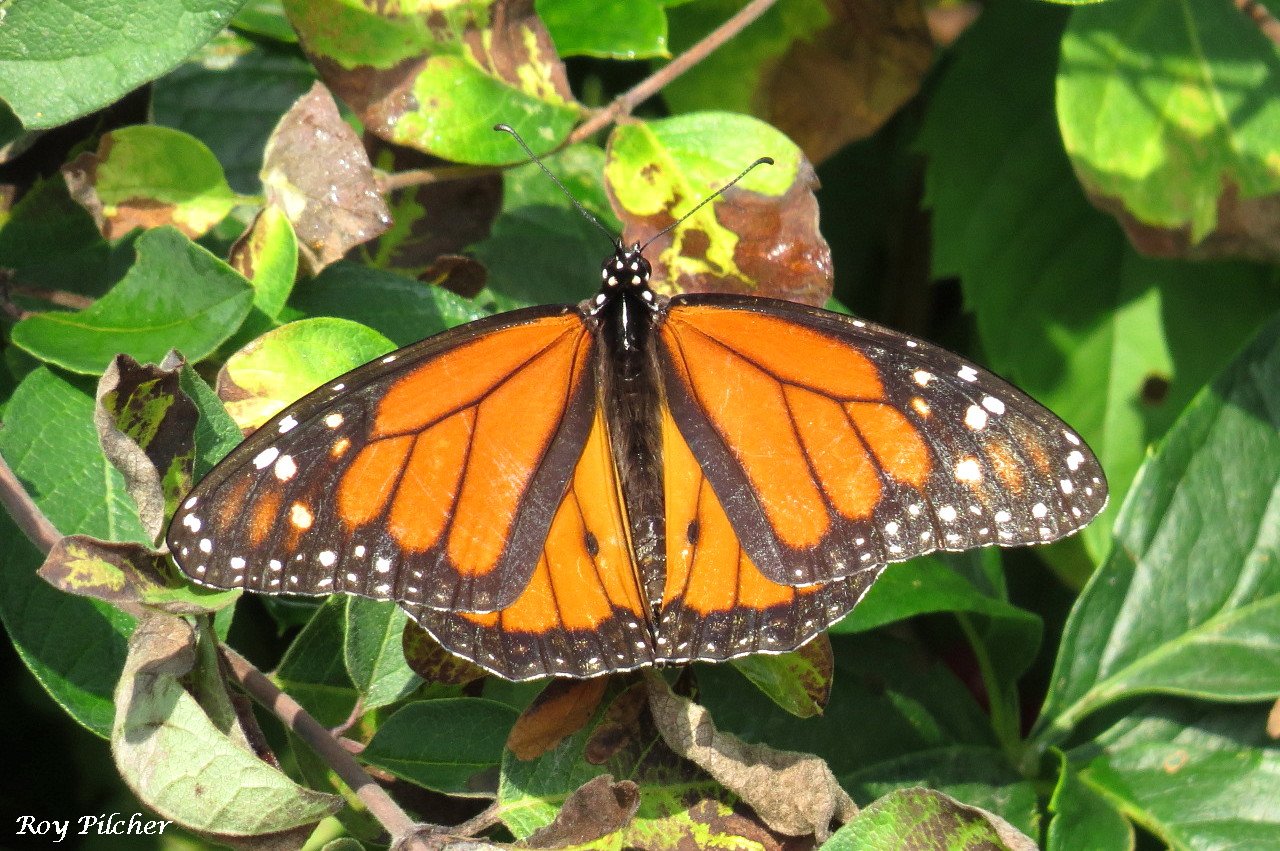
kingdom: Animalia
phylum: Arthropoda
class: Insecta
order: Lepidoptera
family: Nymphalidae
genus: Danaus
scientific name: Danaus plexippus
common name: Monarch
